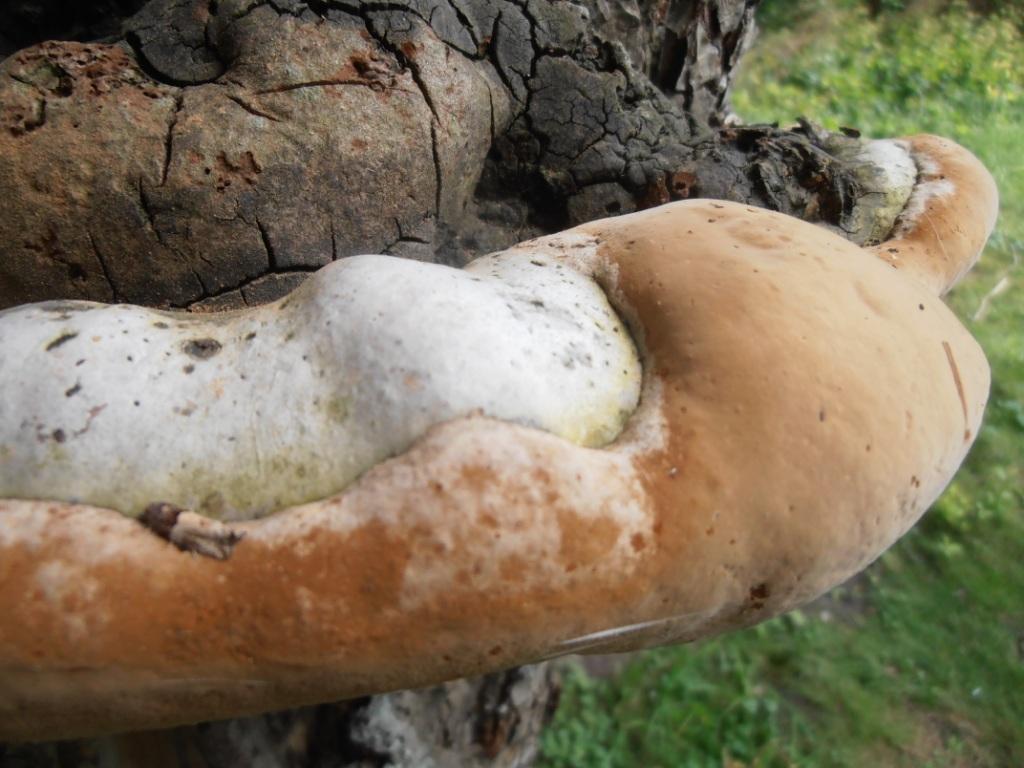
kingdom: Fungi
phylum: Basidiomycota
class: Agaricomycetes
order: Hymenochaetales
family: Hymenochaetaceae
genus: Phellinus
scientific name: Phellinus igniarius
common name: elle-ildporesvamp
